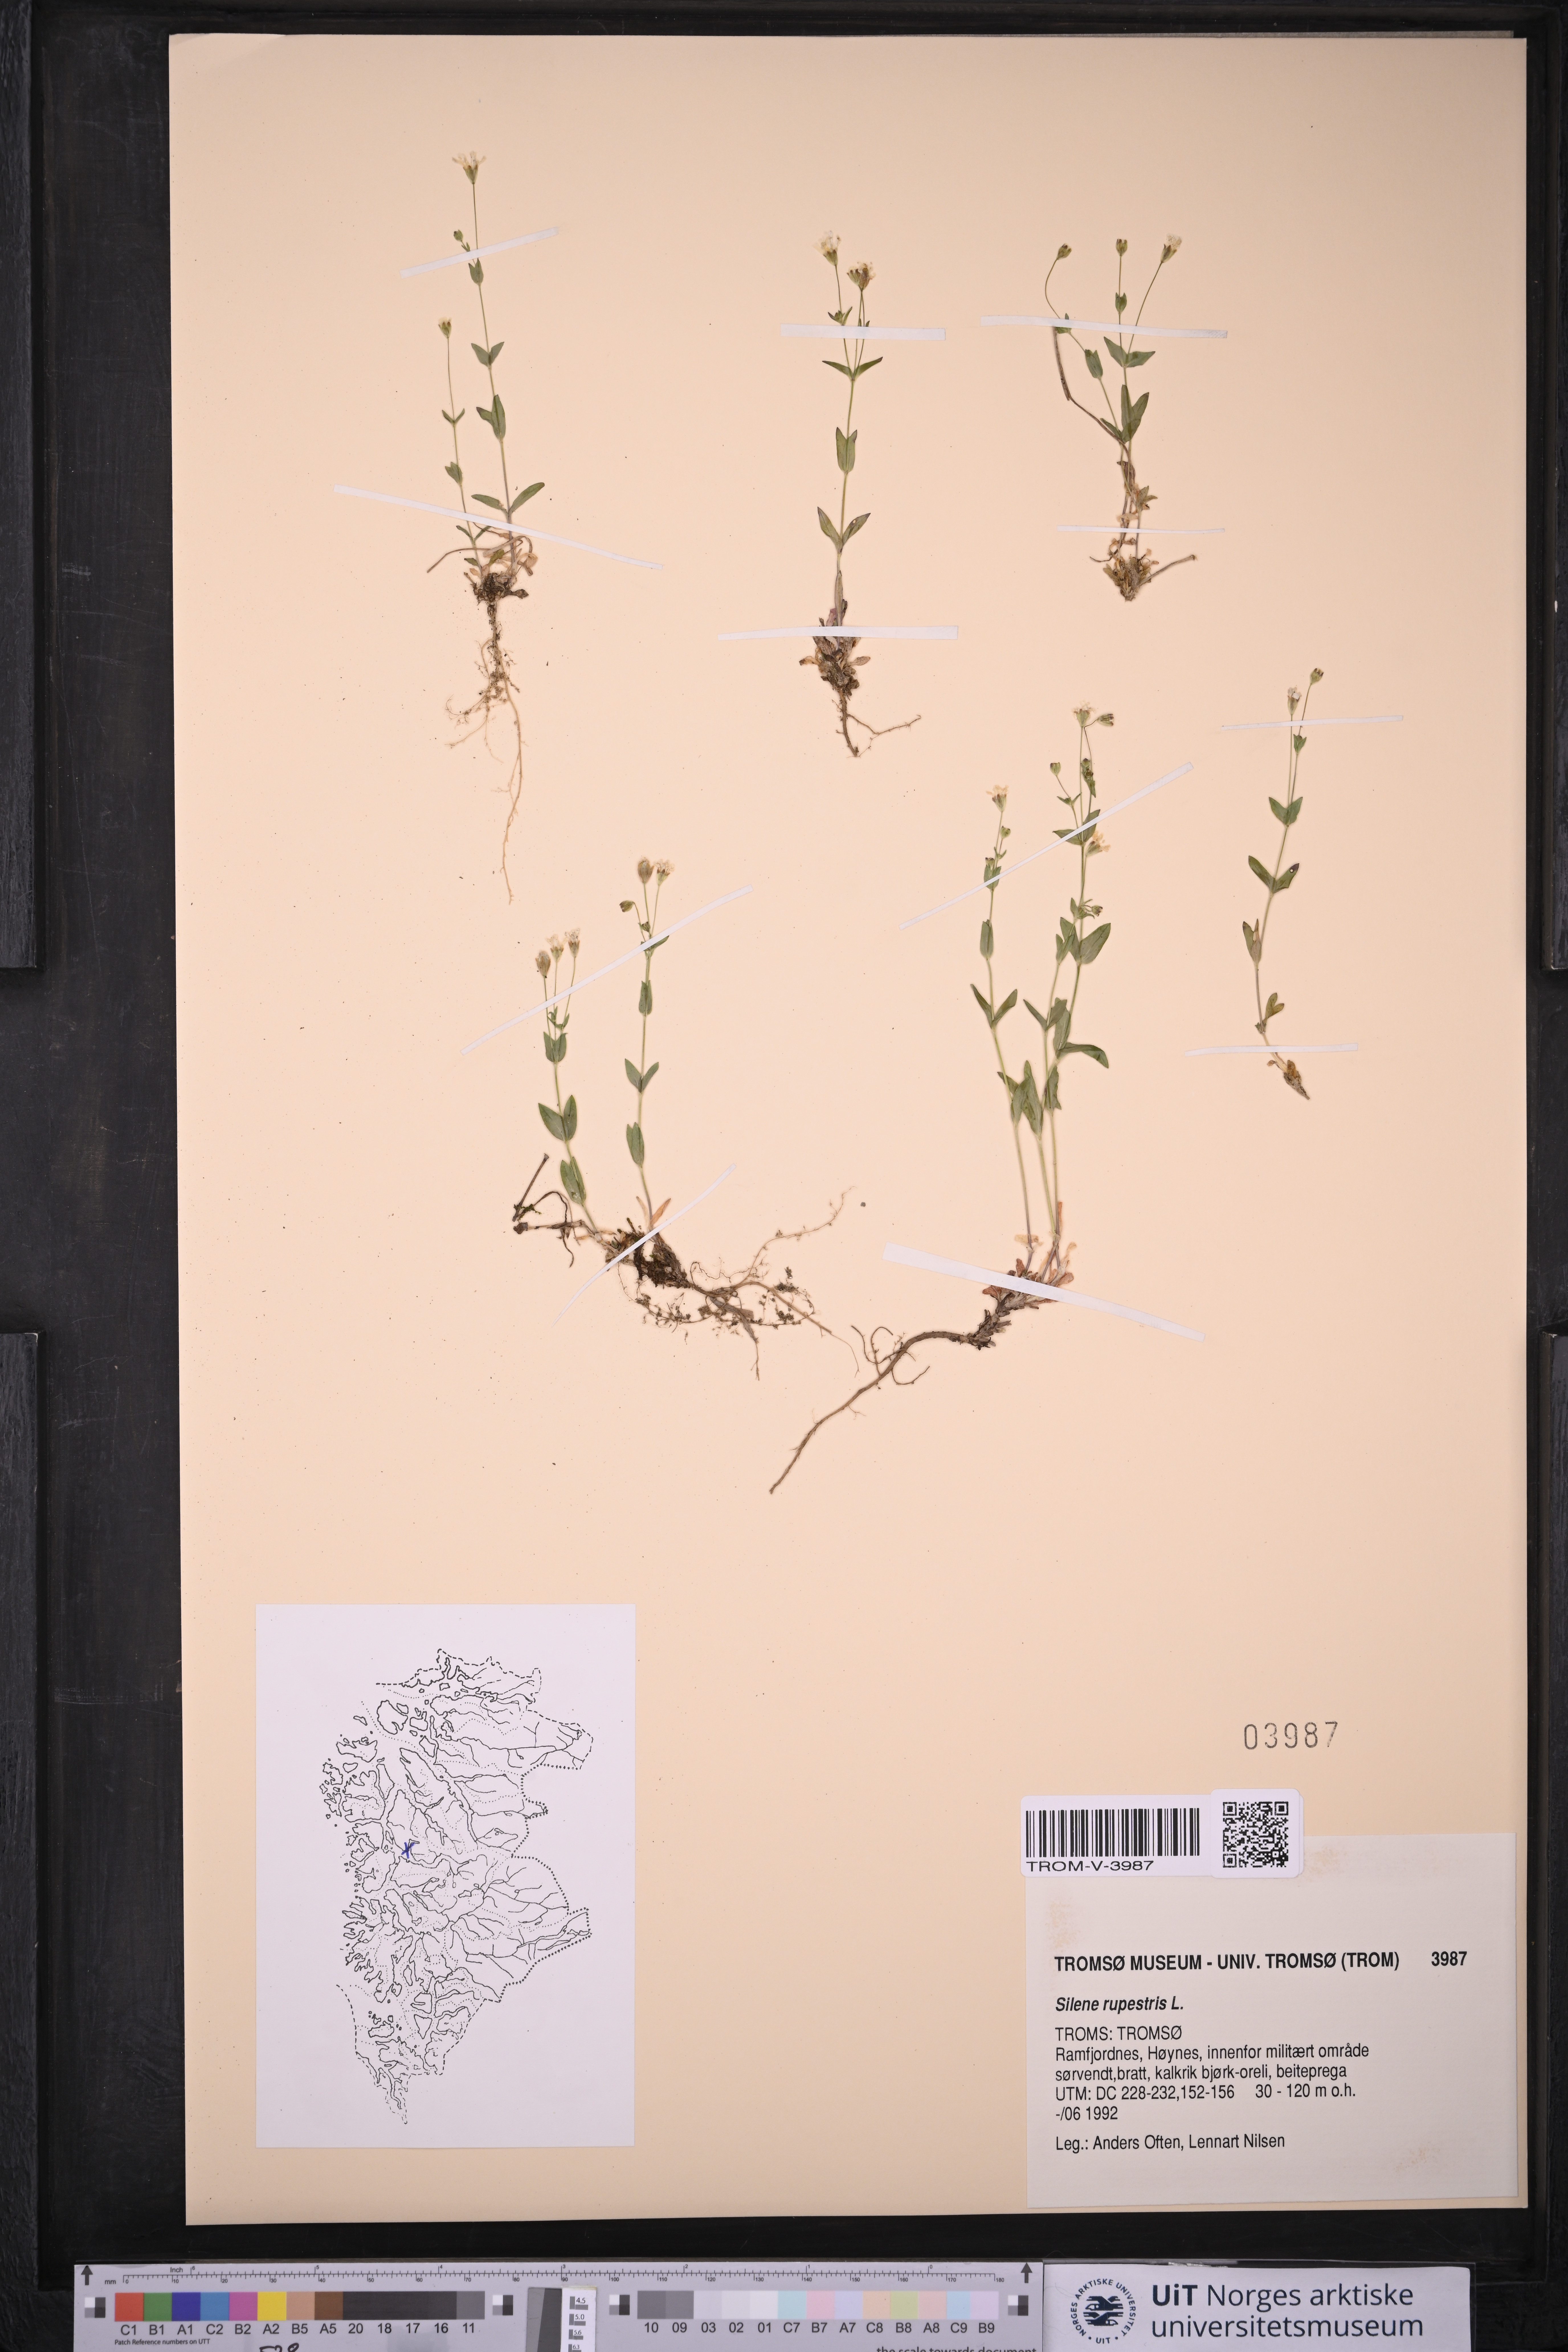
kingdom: Plantae
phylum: Tracheophyta
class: Magnoliopsida
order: Caryophyllales
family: Caryophyllaceae
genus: Atocion
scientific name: Atocion rupestre
